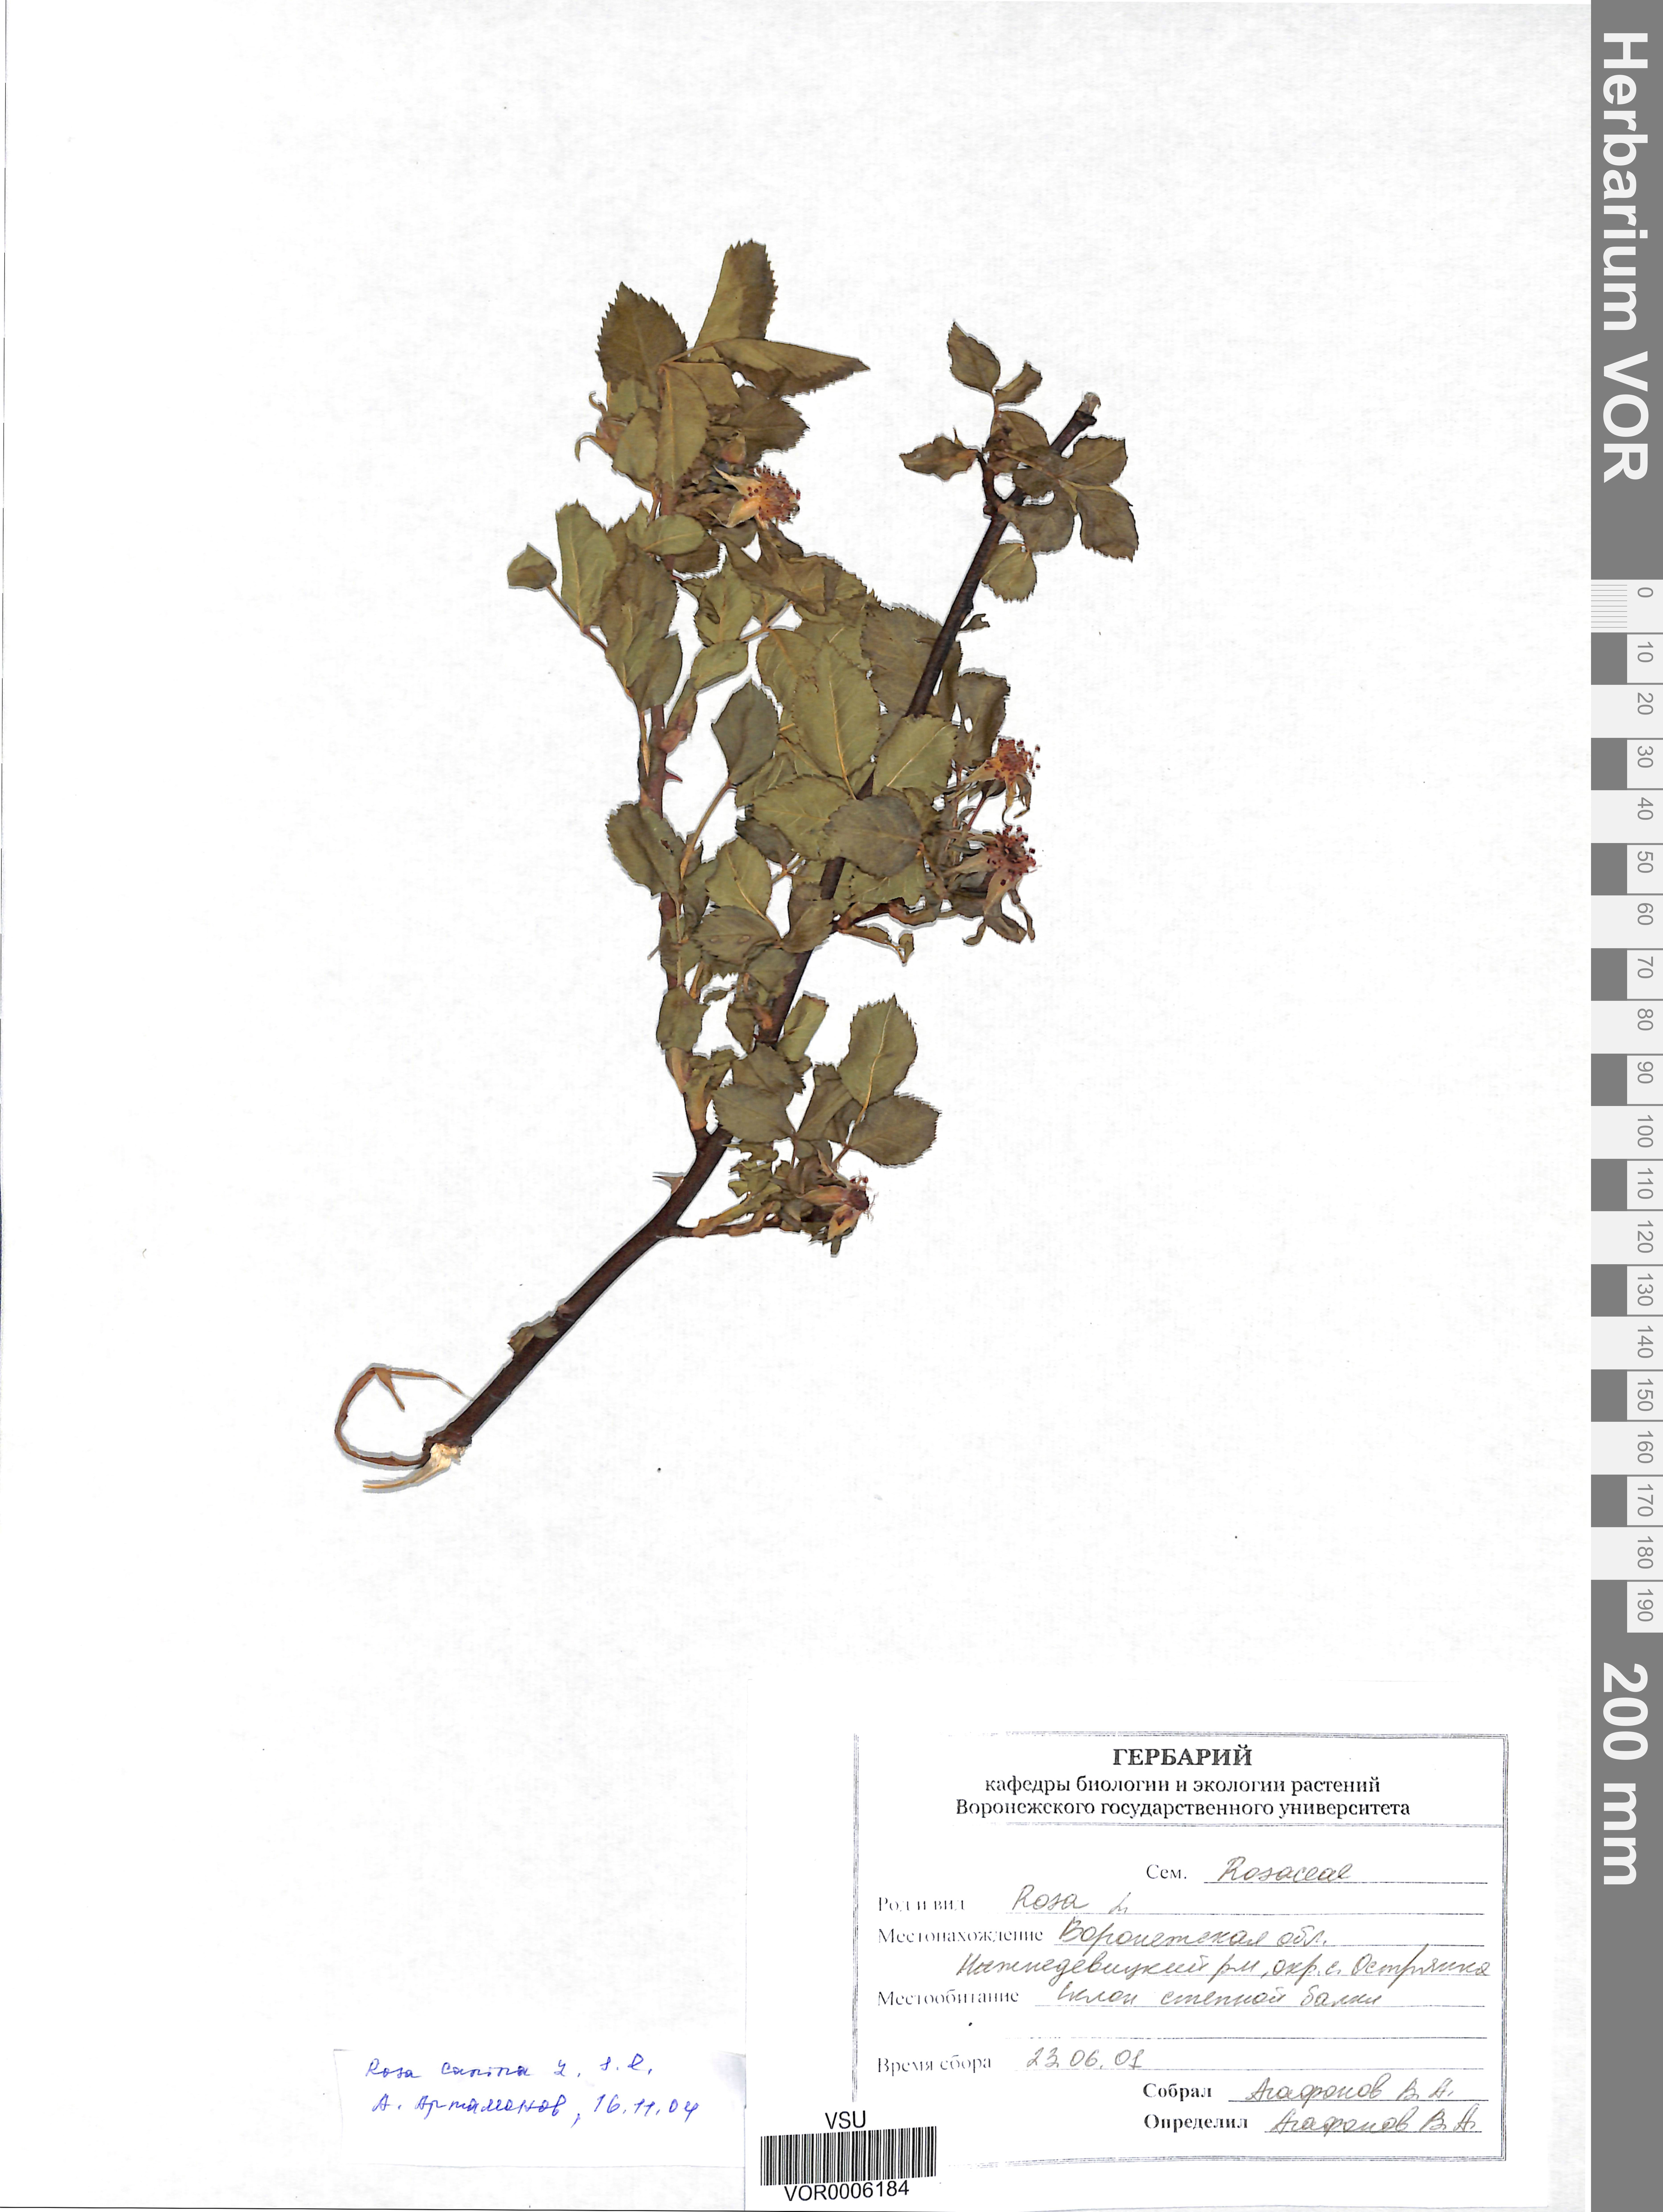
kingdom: Plantae
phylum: Tracheophyta
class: Magnoliopsida
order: Rosales
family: Rosaceae
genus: Rosa
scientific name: Rosa canina
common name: Dog rose
